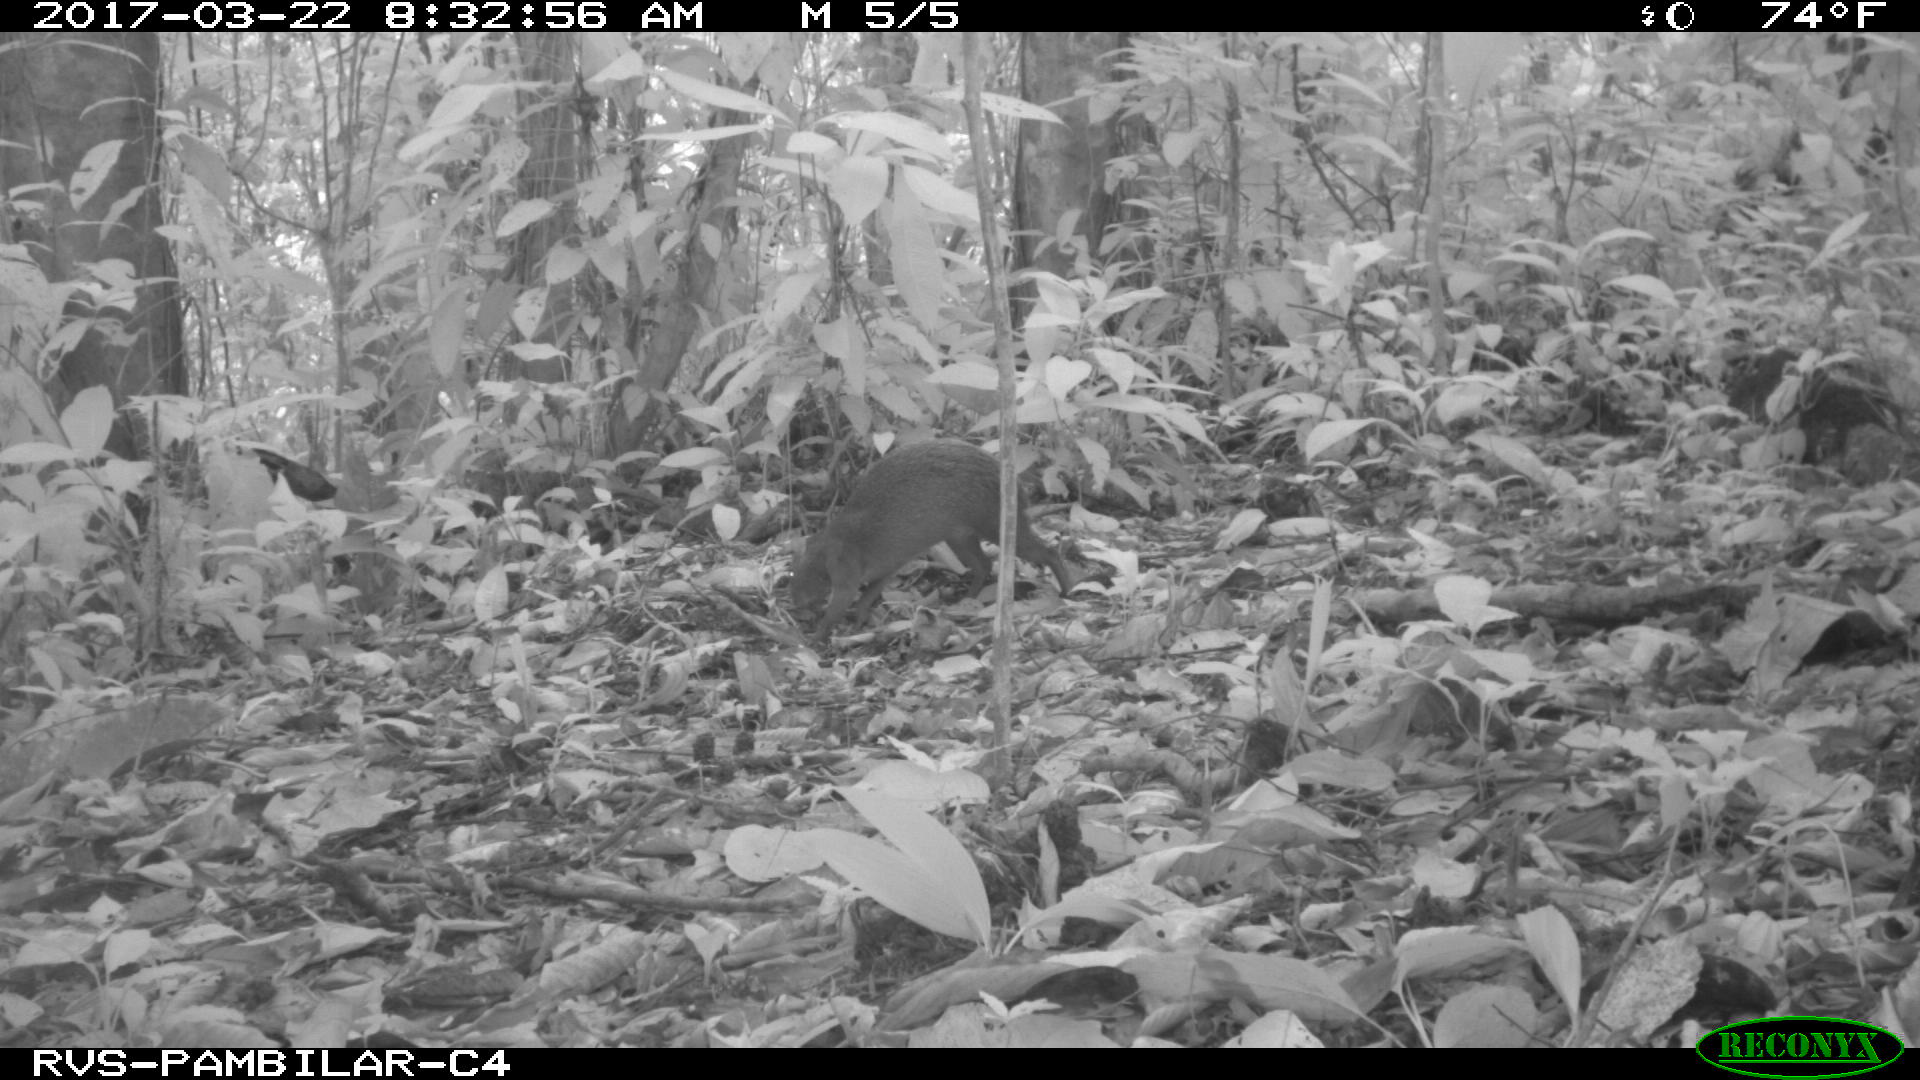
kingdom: Animalia
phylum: Chordata
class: Mammalia
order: Rodentia
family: Dasyproctidae
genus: Dasyprocta
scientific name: Dasyprocta punctata
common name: Central american agouti
